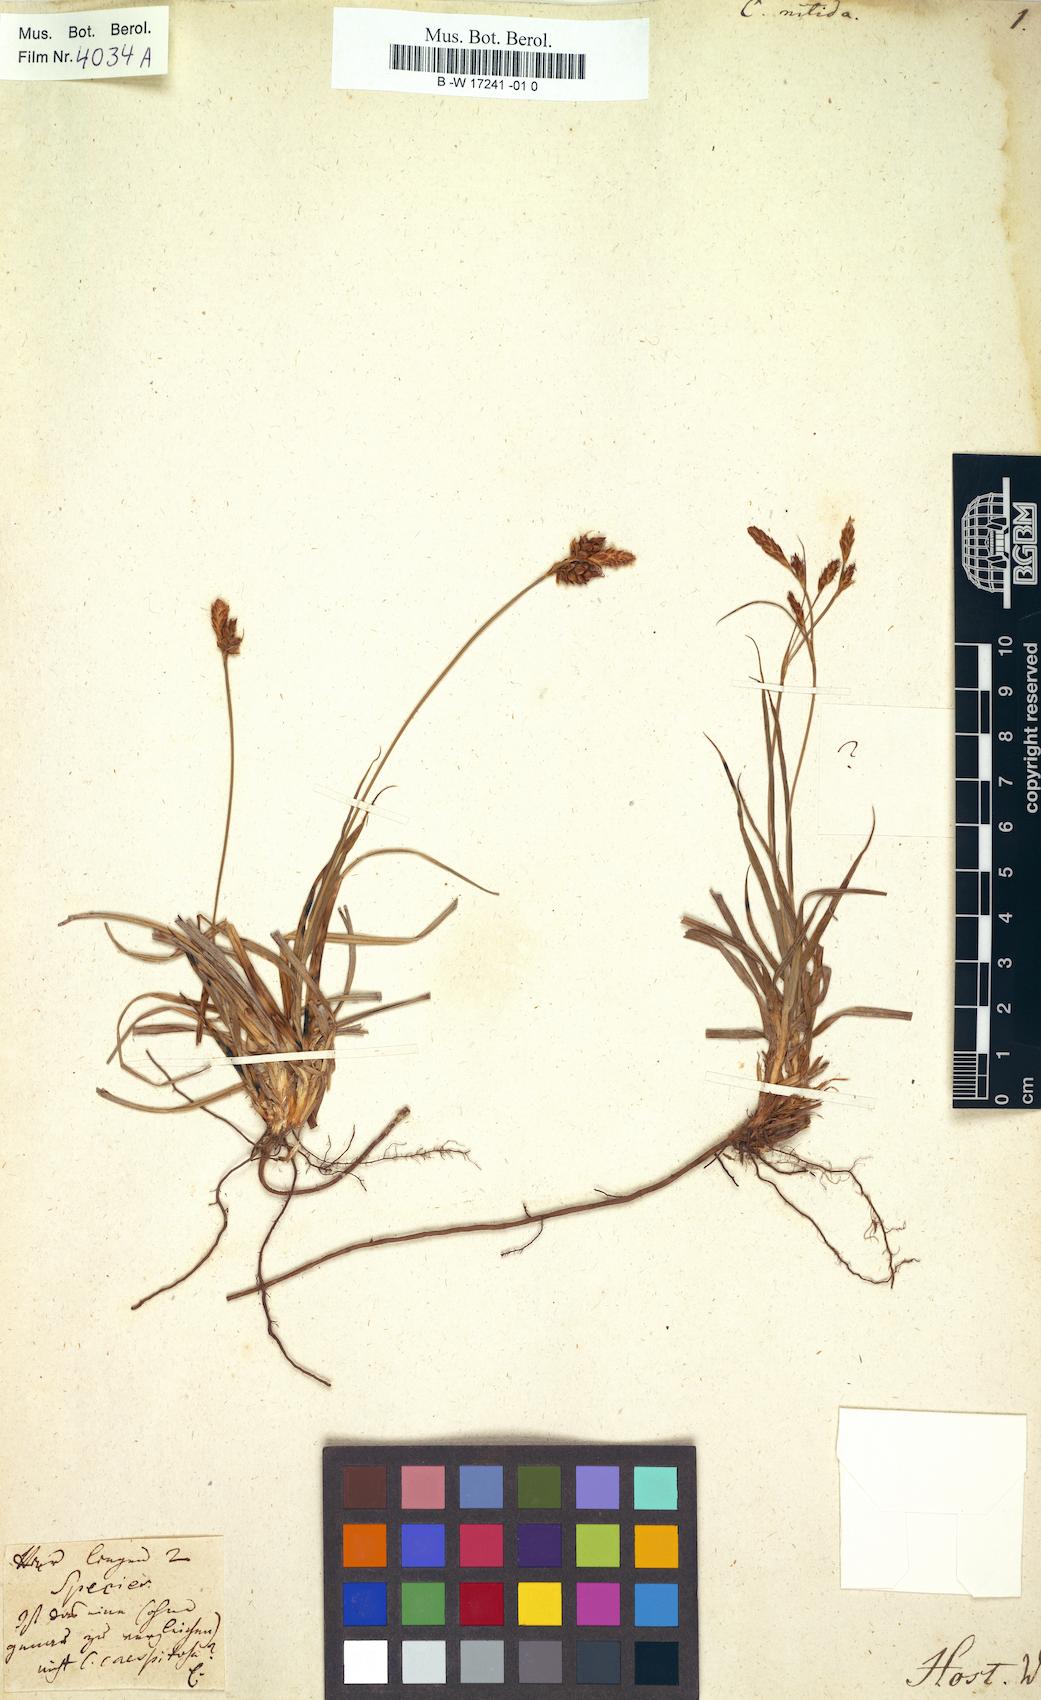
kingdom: Plantae
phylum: Tracheophyta
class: Liliopsida
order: Poales
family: Cyperaceae
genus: Carex
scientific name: Carex mucronata
